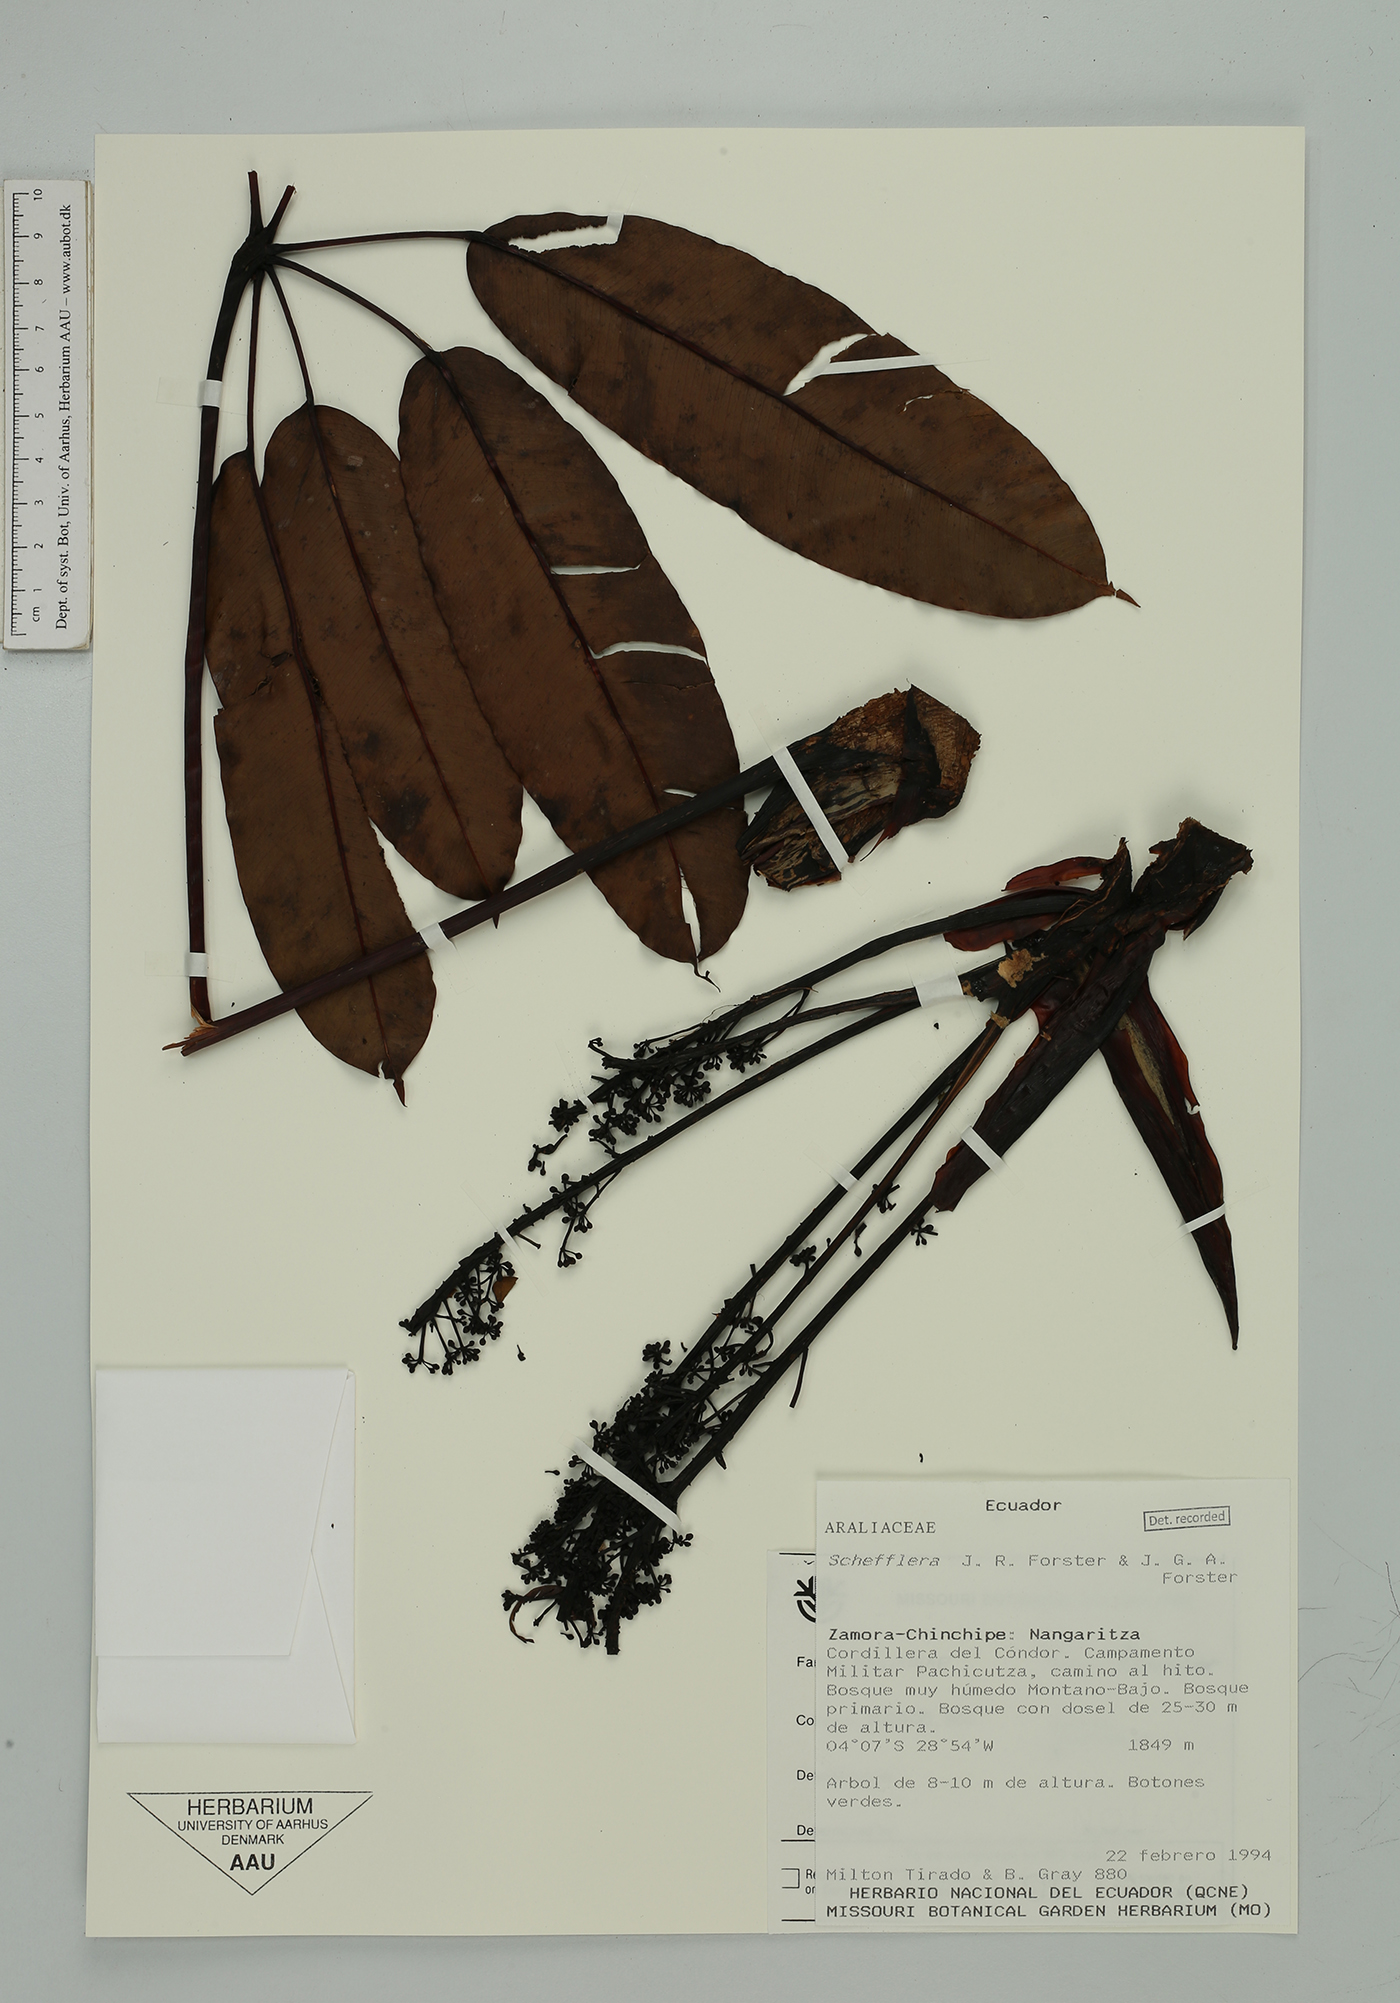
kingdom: Plantae
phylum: Tracheophyta
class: Magnoliopsida
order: Apiales
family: Araliaceae
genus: Sciodaphyllum
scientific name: Sciodaphyllum patulum
